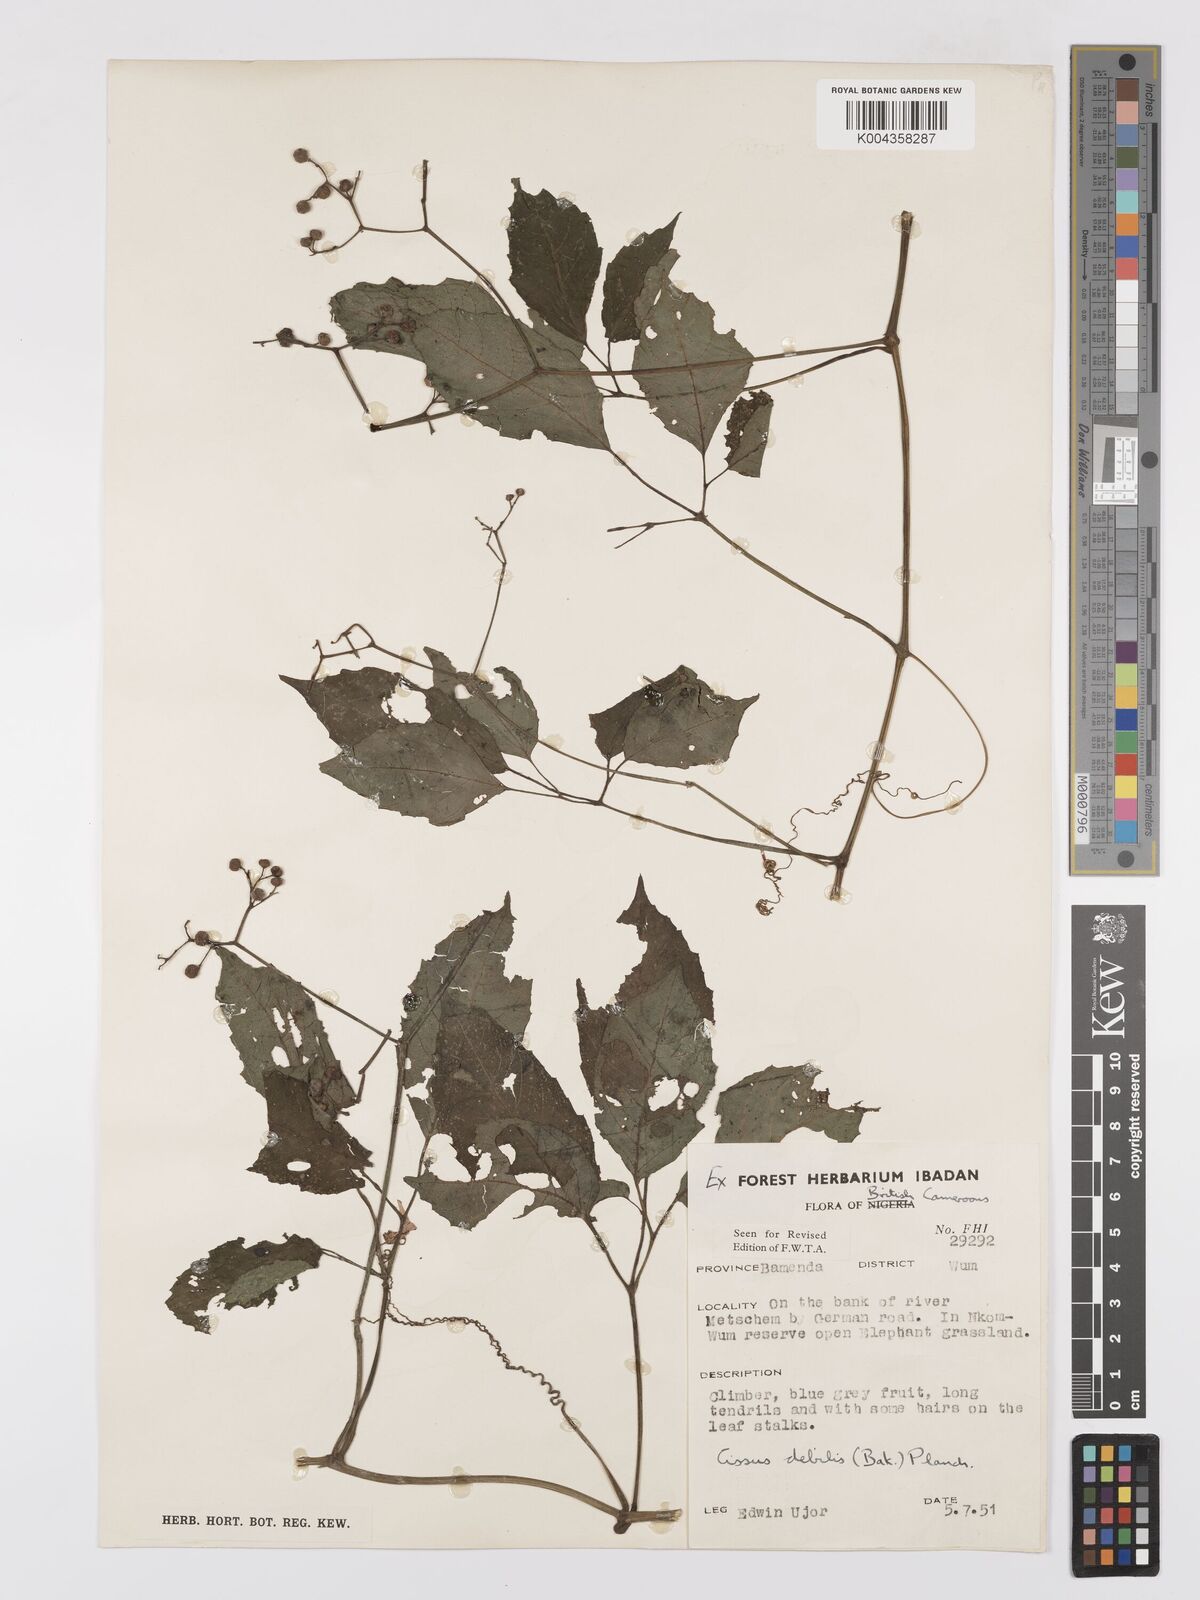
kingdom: Plantae
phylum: Tracheophyta
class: Magnoliopsida
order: Vitales
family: Vitaceae
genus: Afrocayratia
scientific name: Afrocayratia debilis
